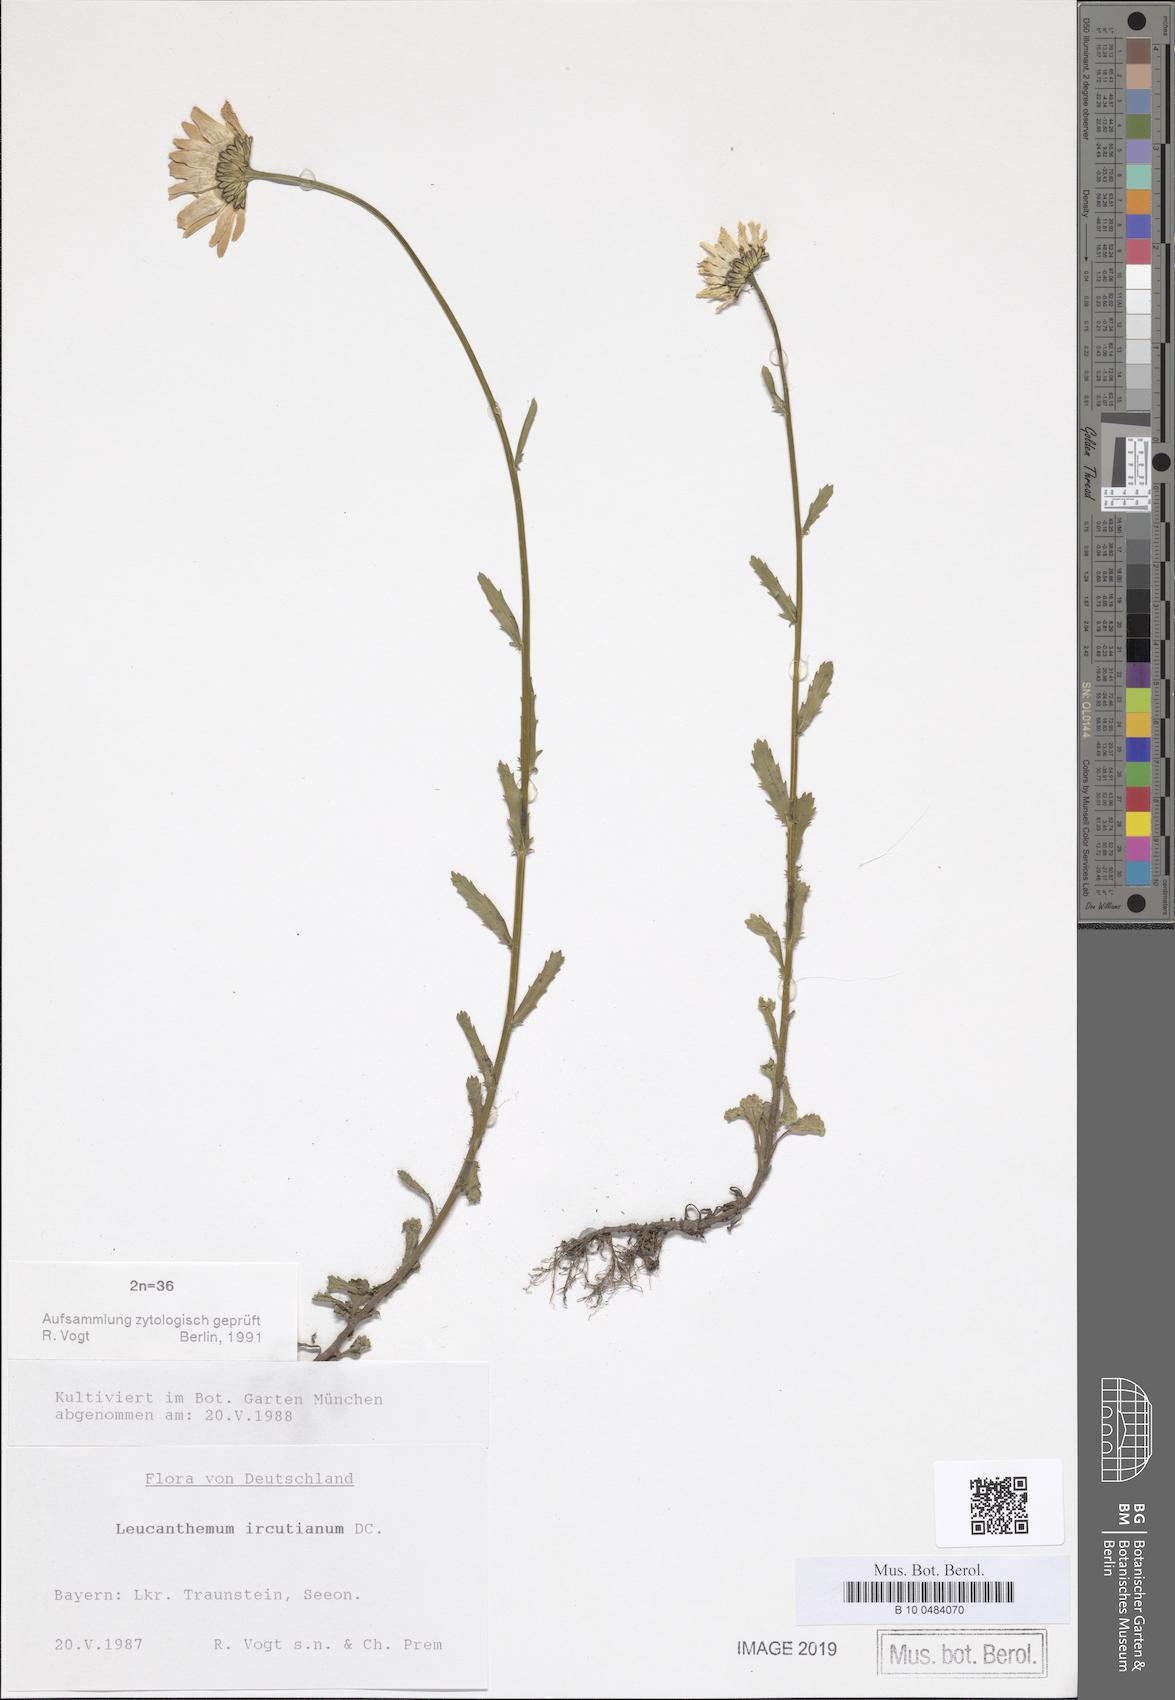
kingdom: Plantae
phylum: Tracheophyta
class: Magnoliopsida
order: Asterales
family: Asteraceae
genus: Leucanthemum
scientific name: Leucanthemum ircutianum
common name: Daisy
